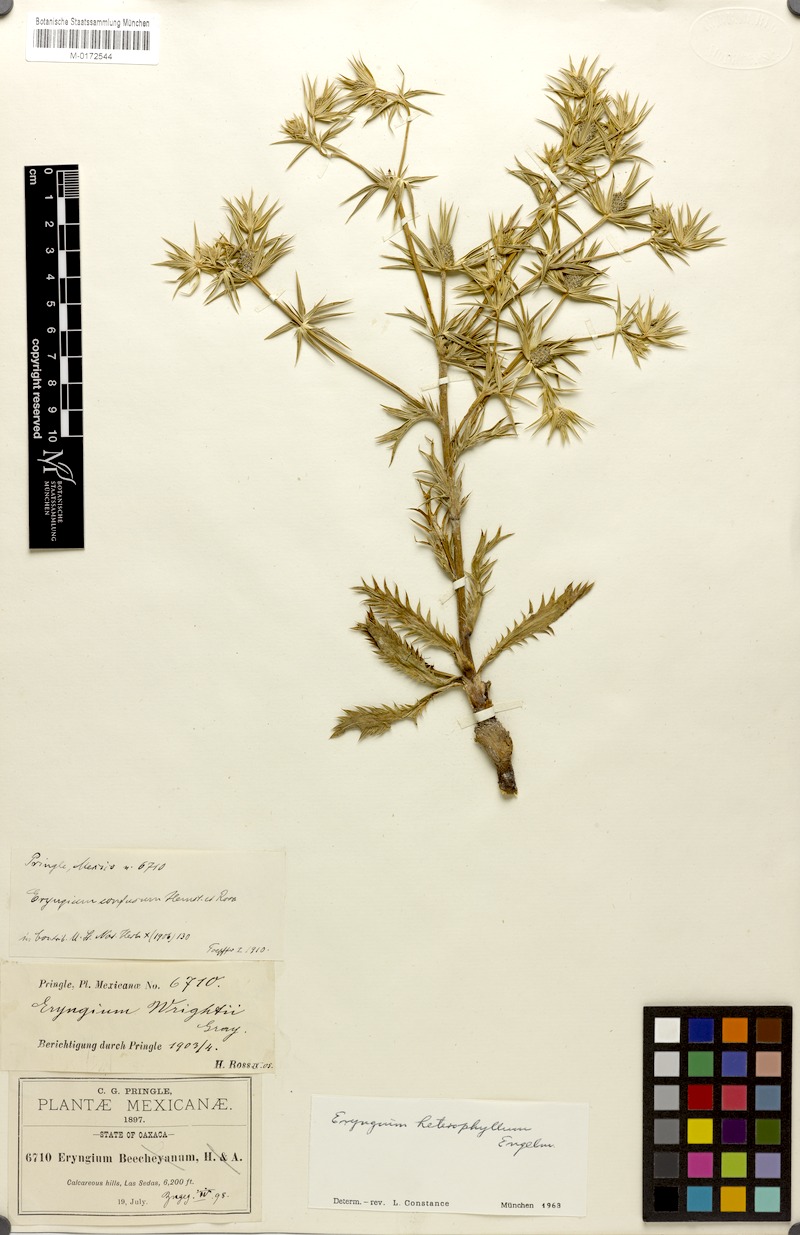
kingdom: Plantae
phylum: Tracheophyta
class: Magnoliopsida
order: Apiales
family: Apiaceae
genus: Eryngium
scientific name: Eryngium heterophyllum
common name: Mexican thistle
